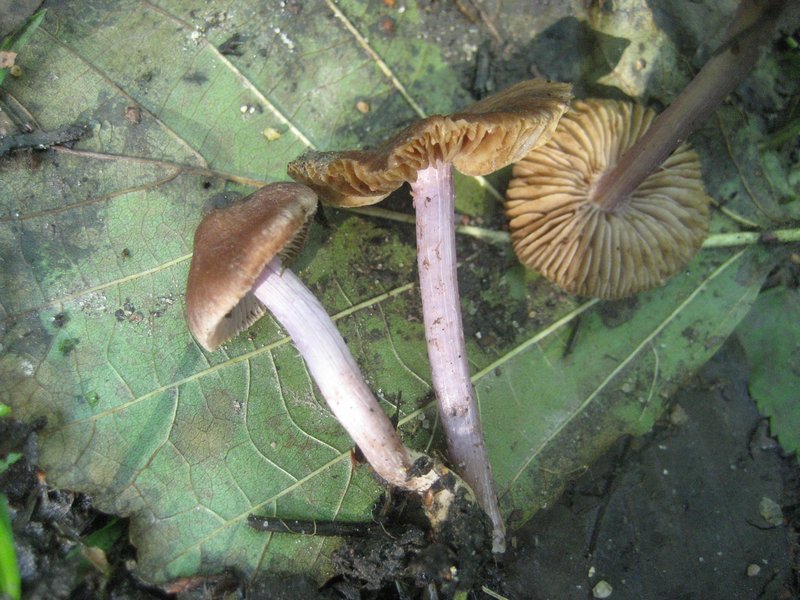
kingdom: Fungi
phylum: Basidiomycota
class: Agaricomycetes
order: Agaricales
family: Inocybaceae
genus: Inocybe
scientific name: Inocybe pusio
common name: violetfodet trævlhat
